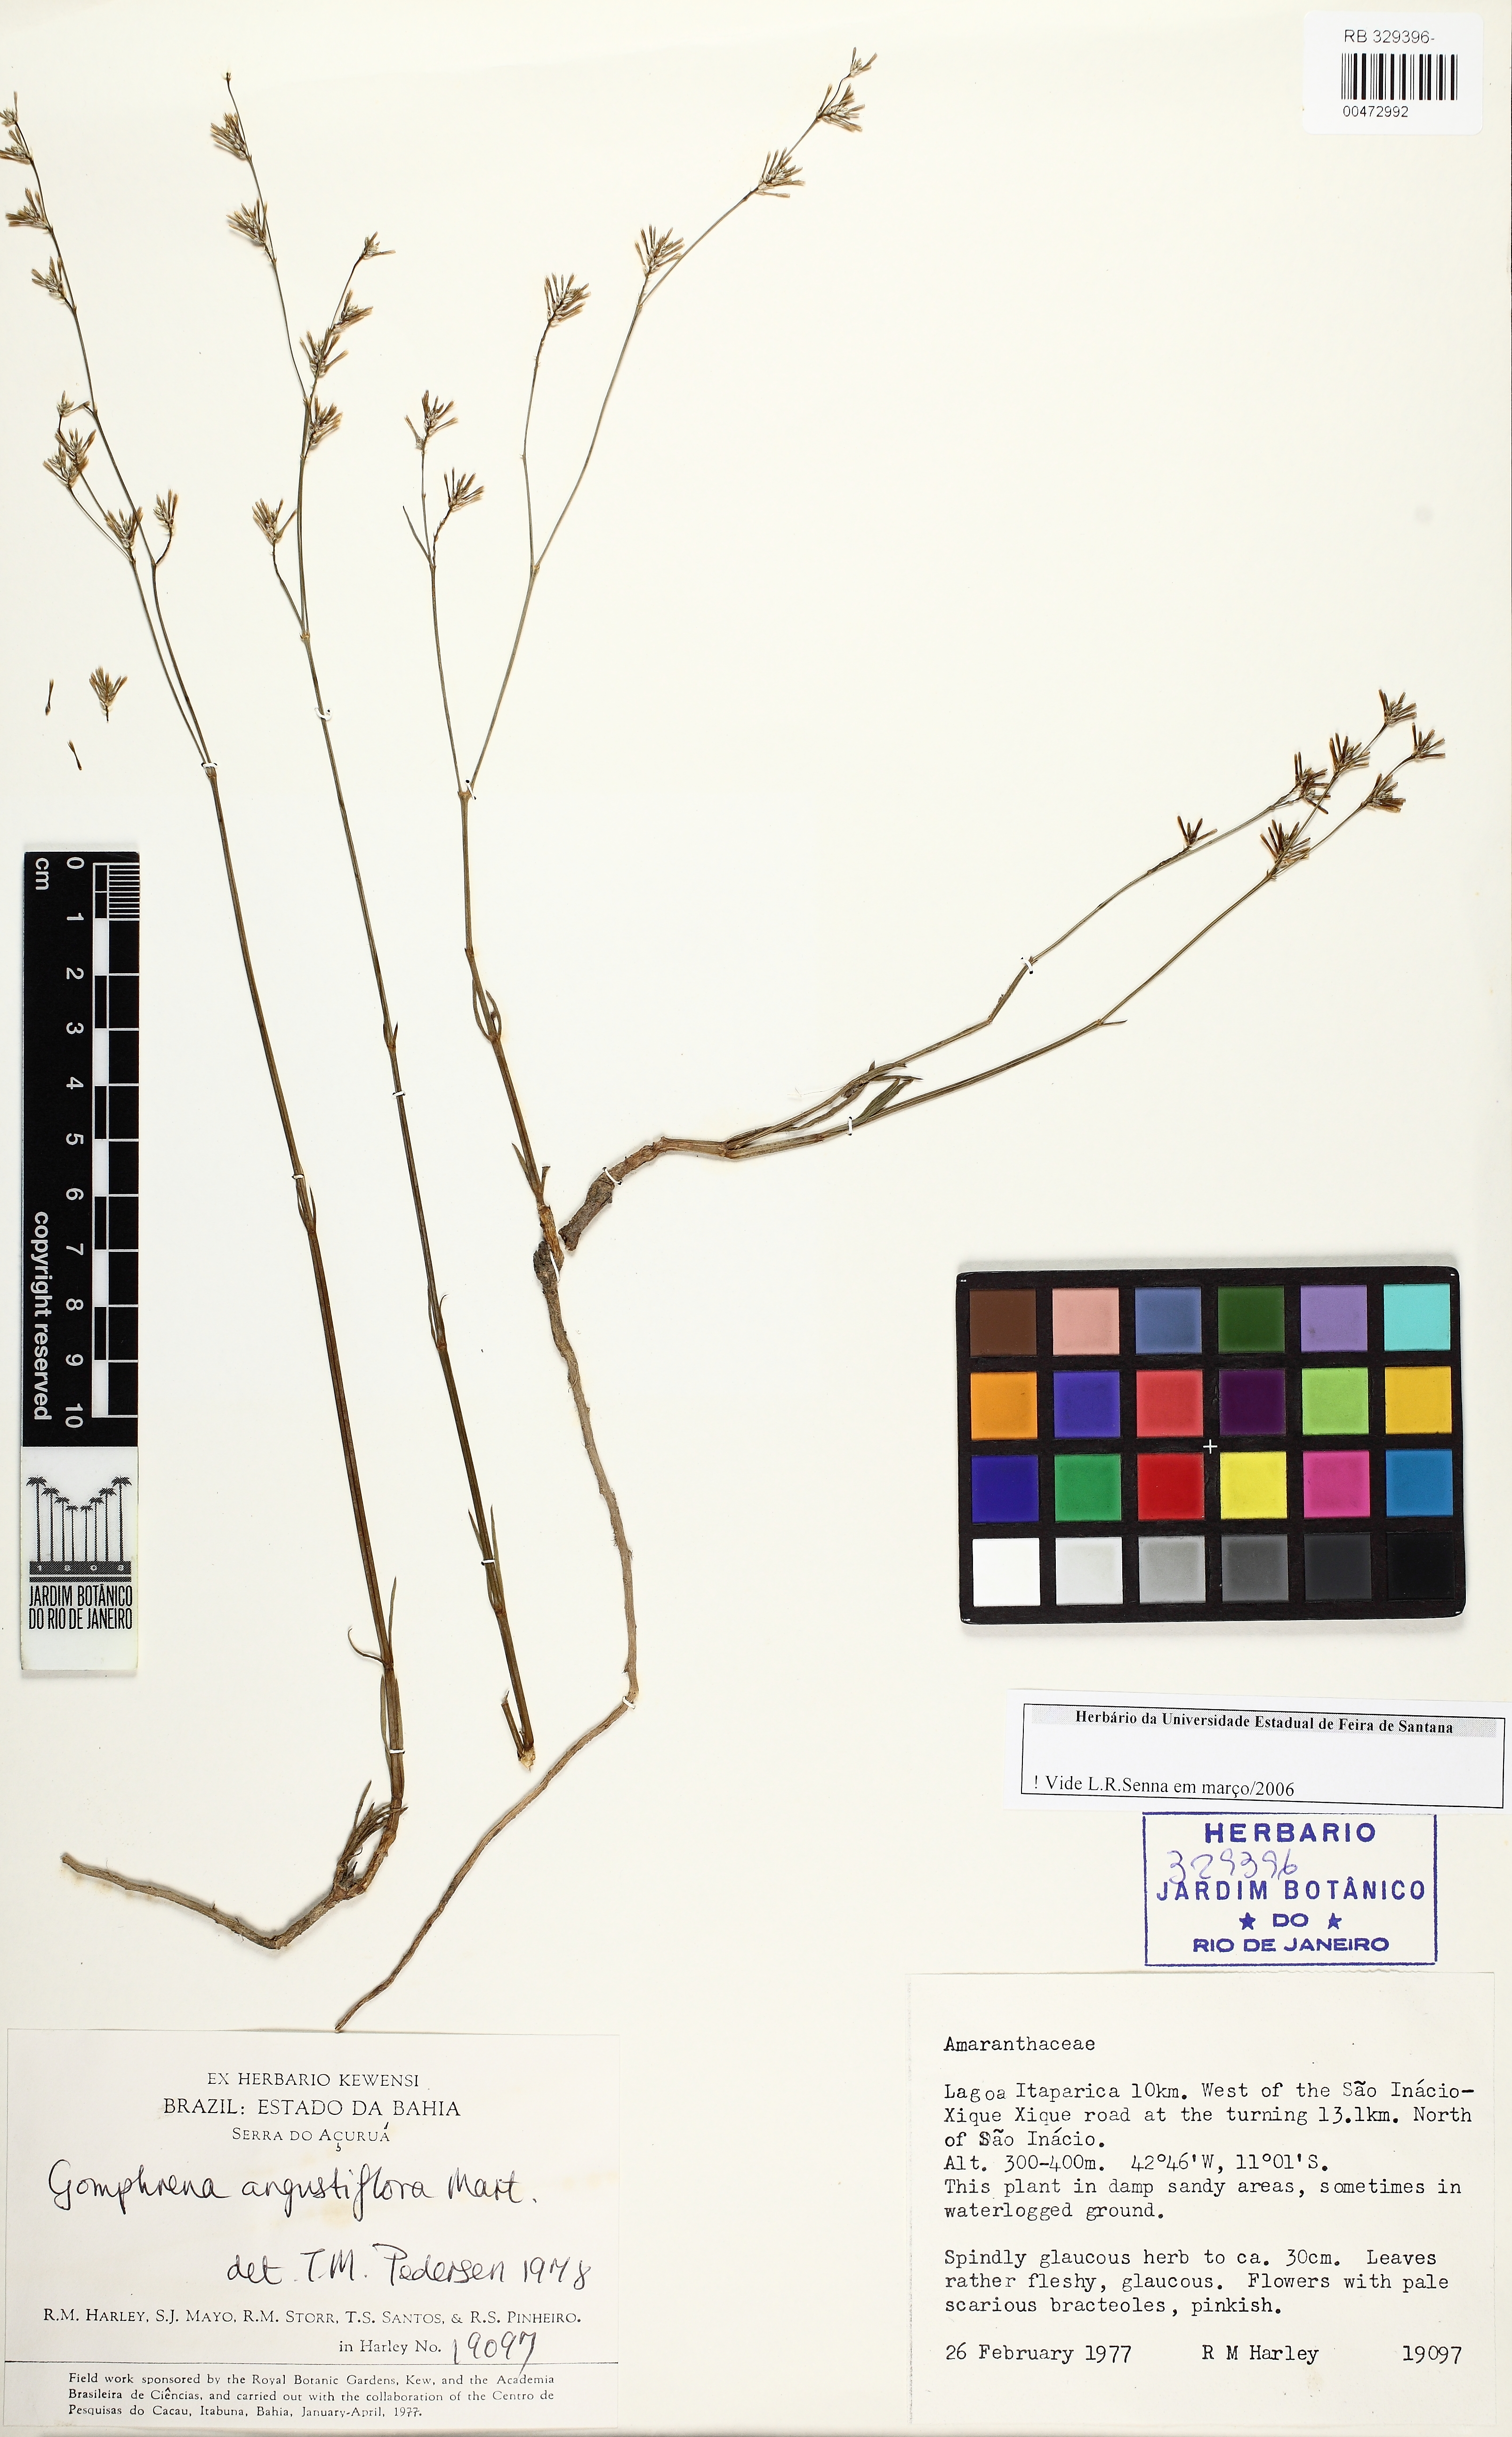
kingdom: Plantae
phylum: Tracheophyta
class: Magnoliopsida
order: Caryophyllales
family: Amaranthaceae
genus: Gomphrena
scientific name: Gomphrena angustiflora
